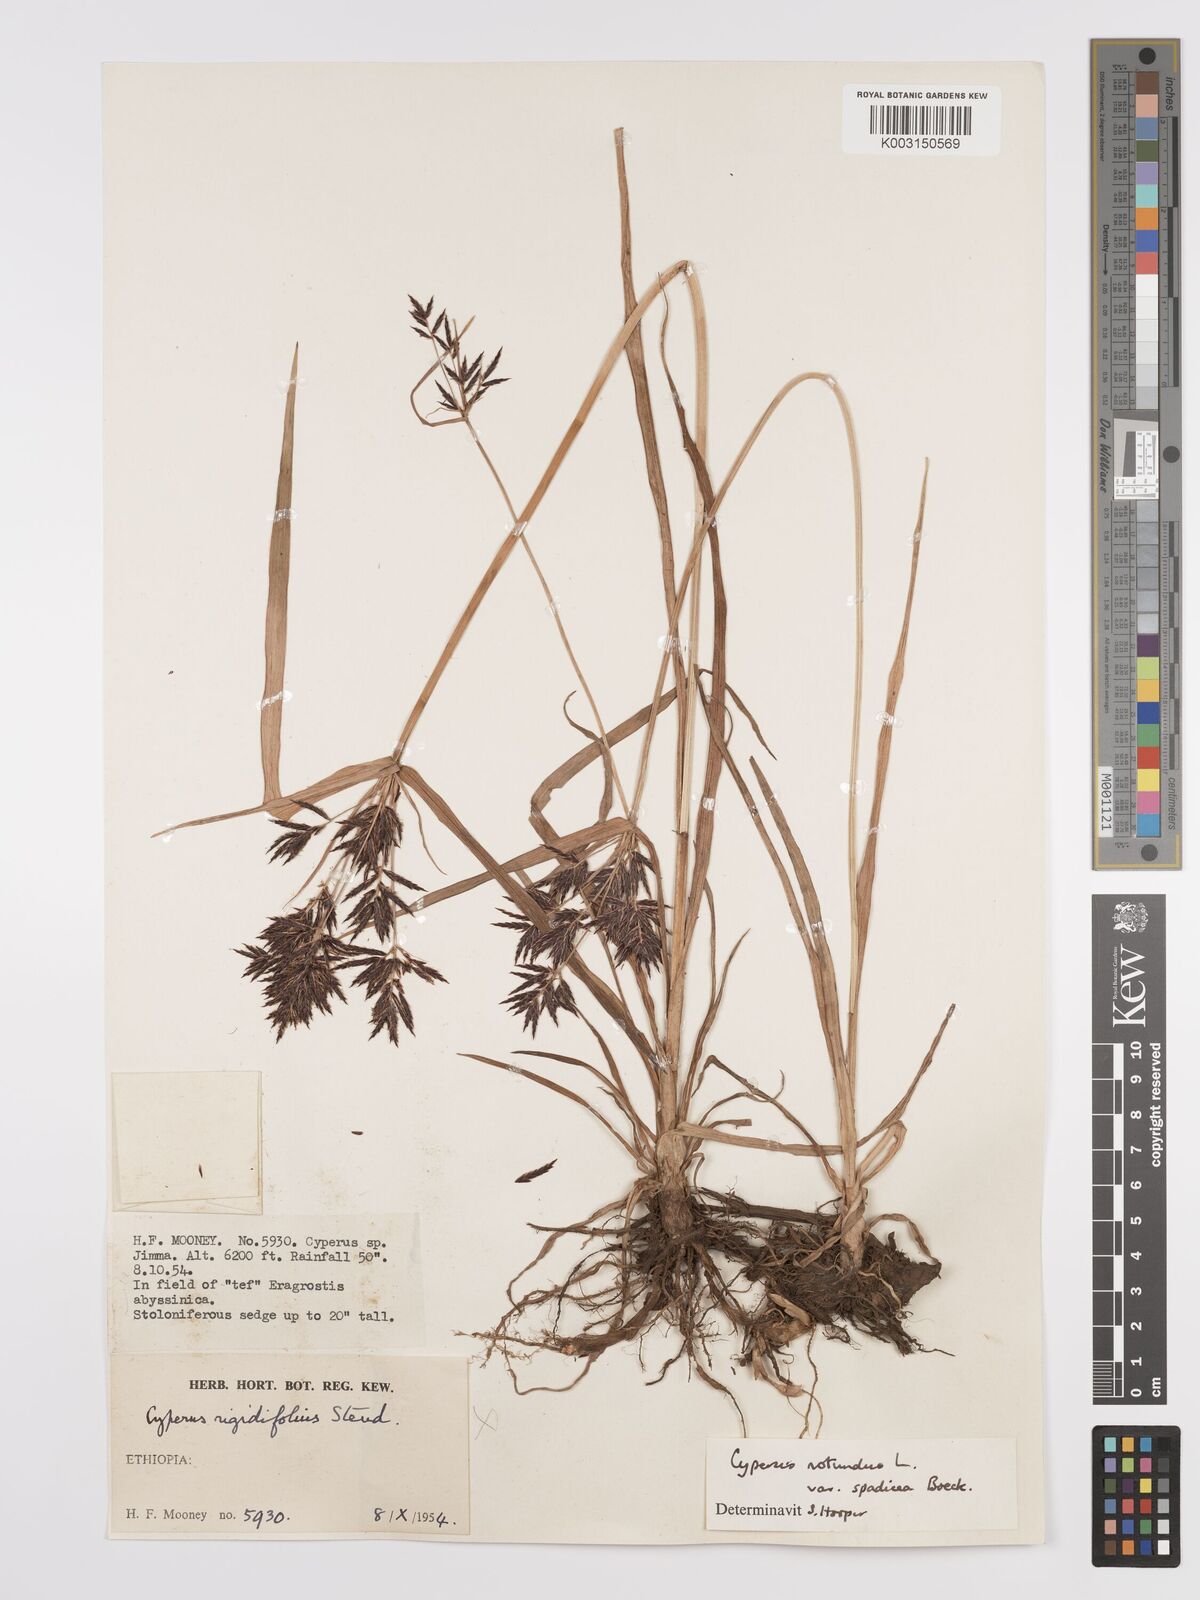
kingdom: Plantae
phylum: Tracheophyta
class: Liliopsida
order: Poales
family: Cyperaceae
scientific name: Cyperaceae
